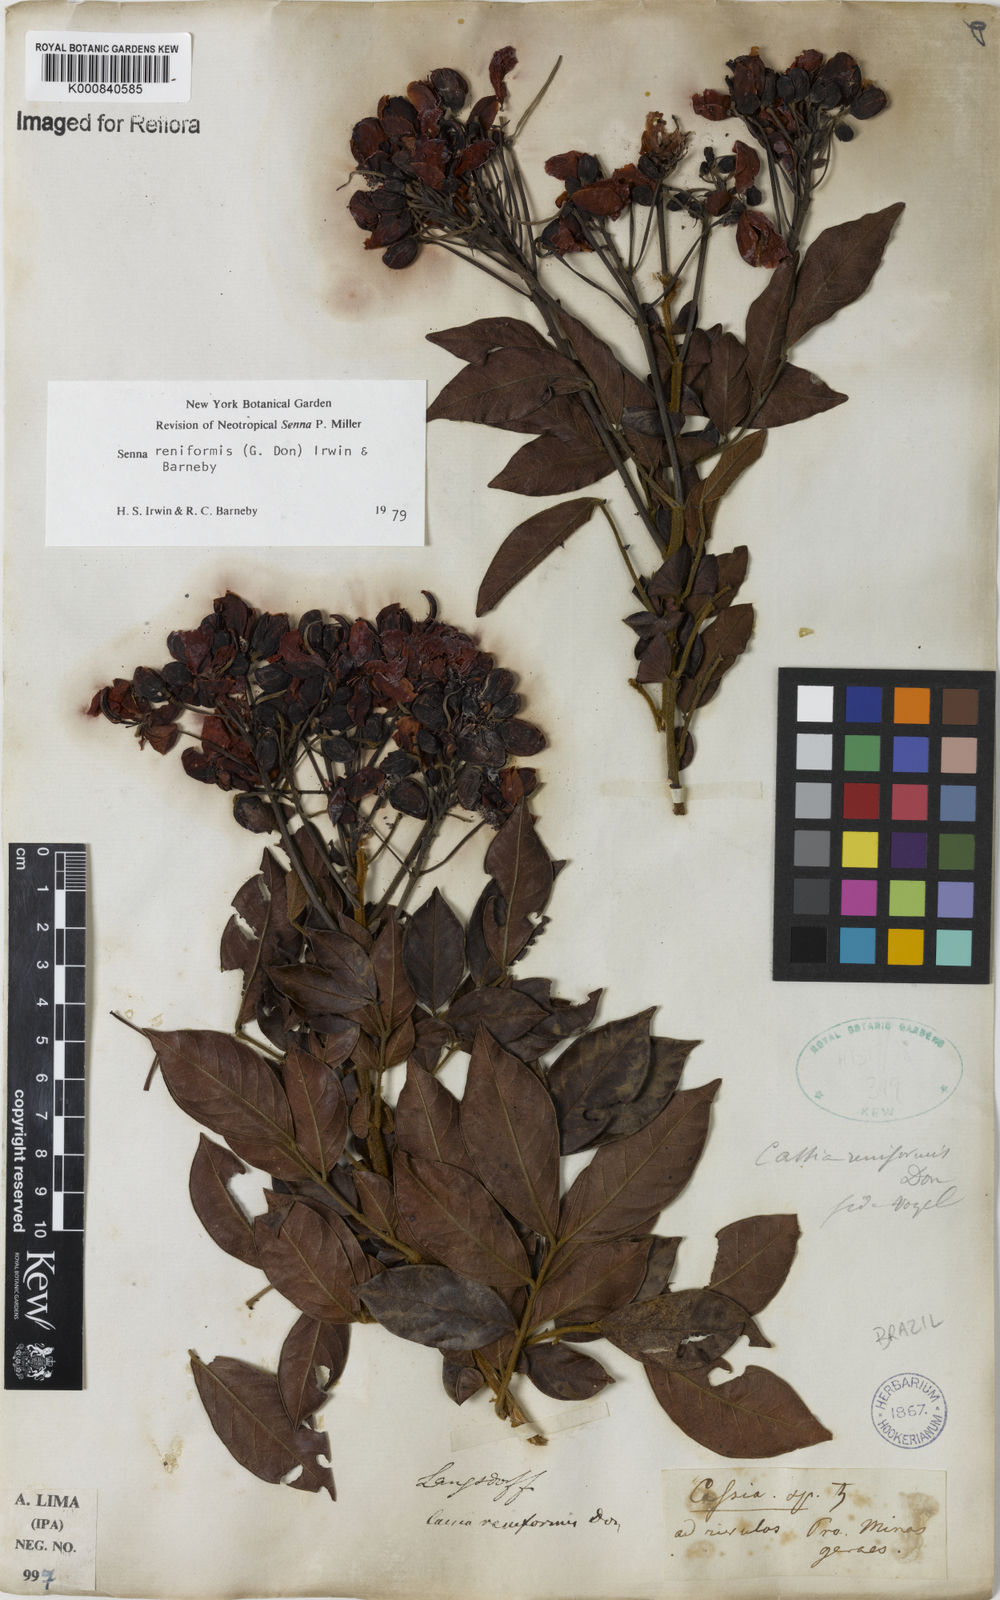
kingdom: Plantae
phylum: Tracheophyta
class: Magnoliopsida
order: Fabales
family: Fabaceae
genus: Senna
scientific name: Senna reniformis
